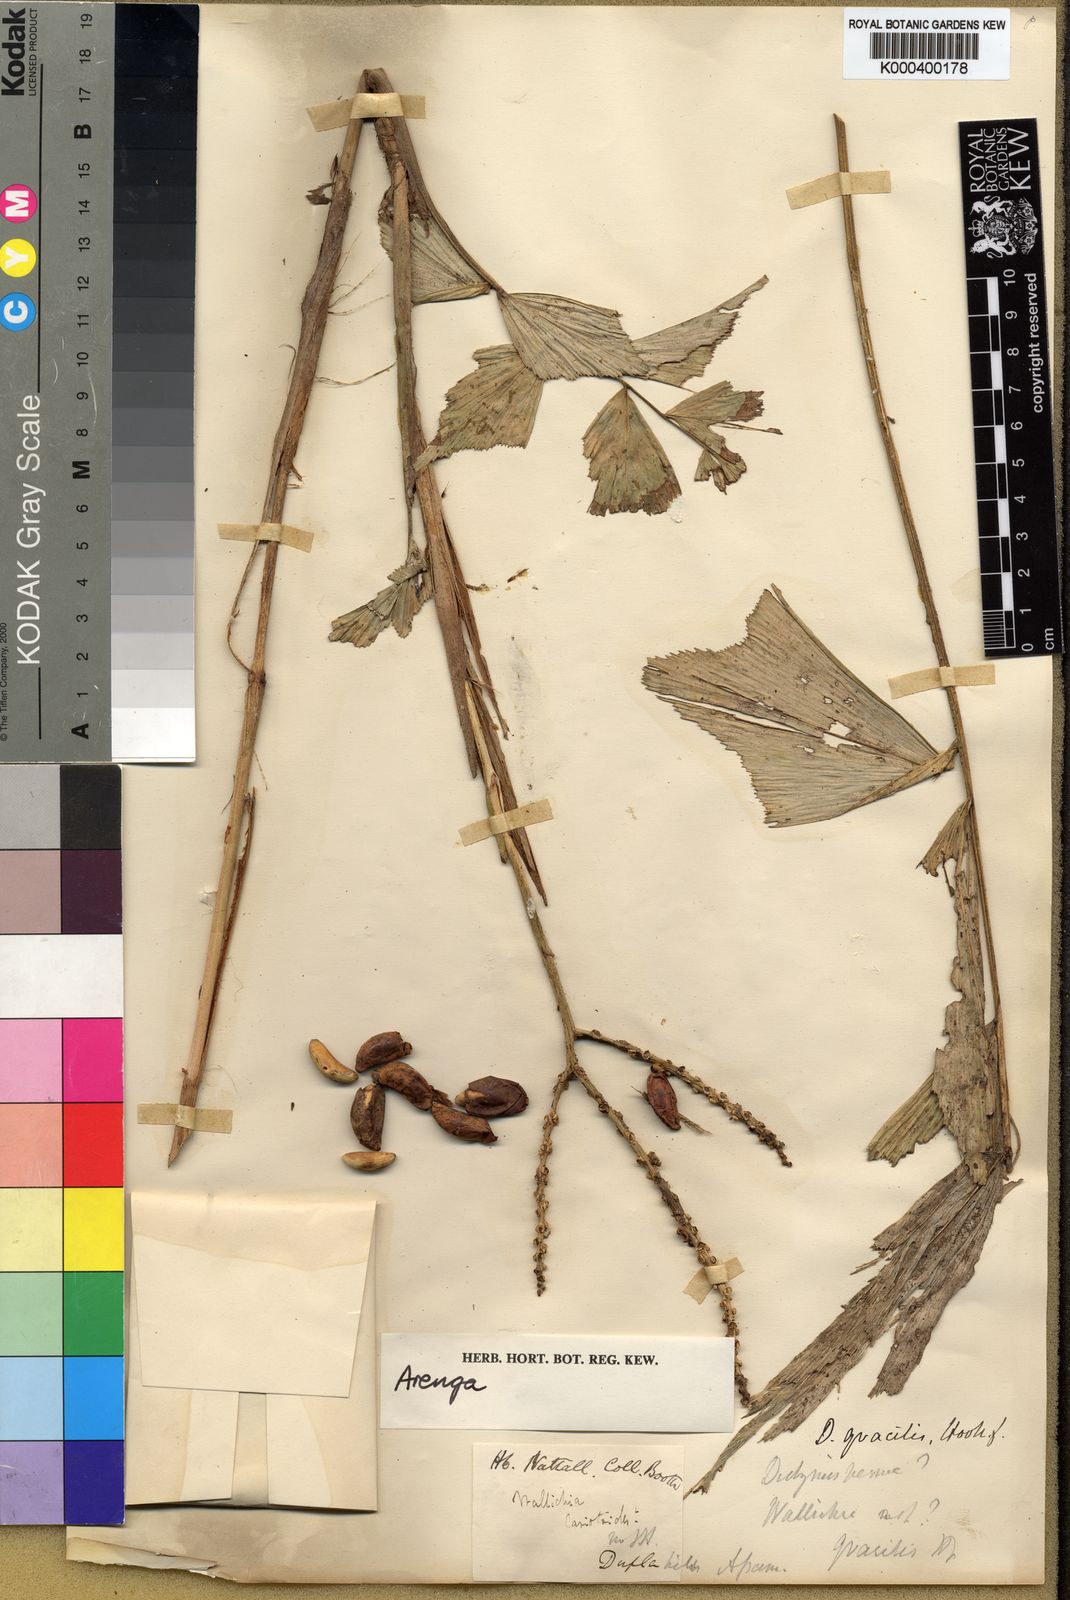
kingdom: Plantae
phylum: Tracheophyta
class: Liliopsida
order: Arecales
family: Arecaceae
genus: Arenga
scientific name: Arenga
